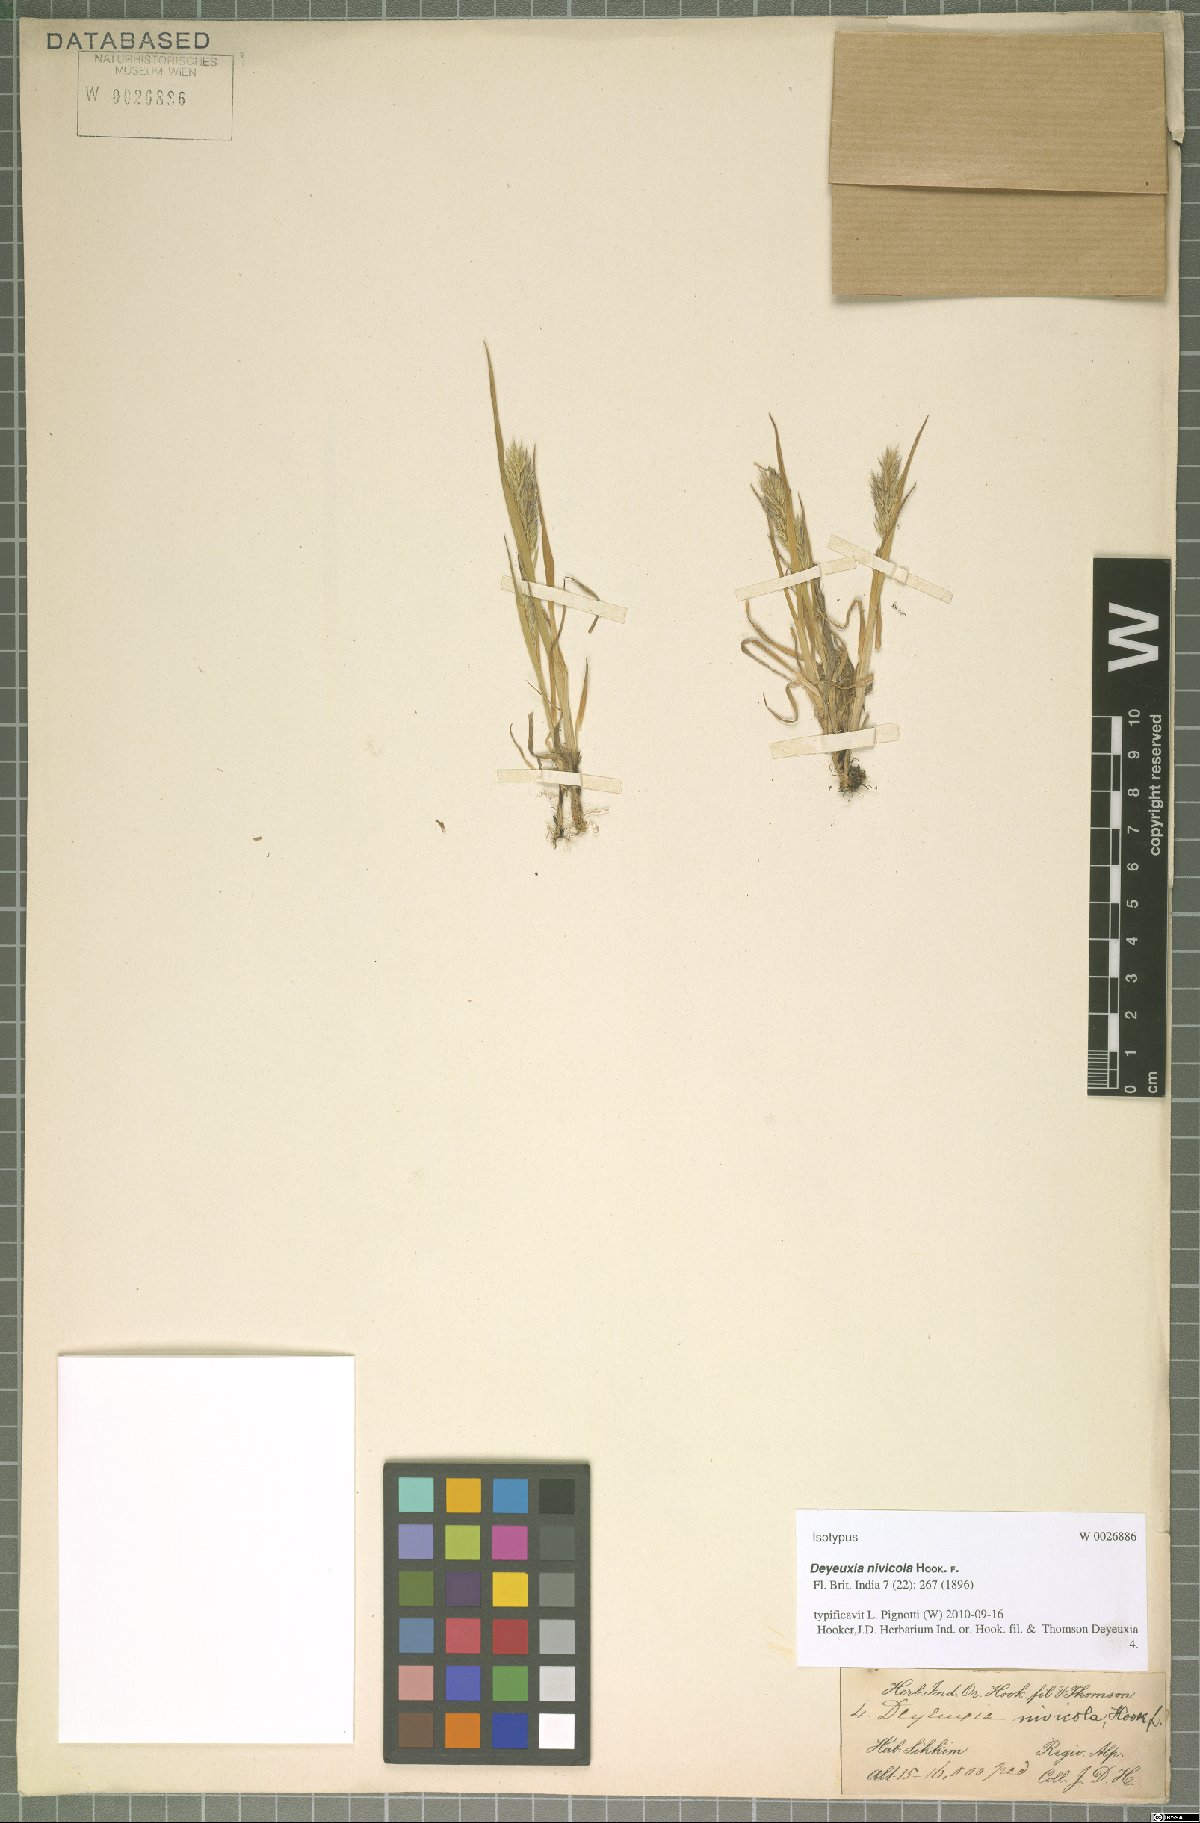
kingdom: Plantae
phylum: Tracheophyta
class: Liliopsida
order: Poales
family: Poaceae
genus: Calamagrostis
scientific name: Calamagrostis nivicola
